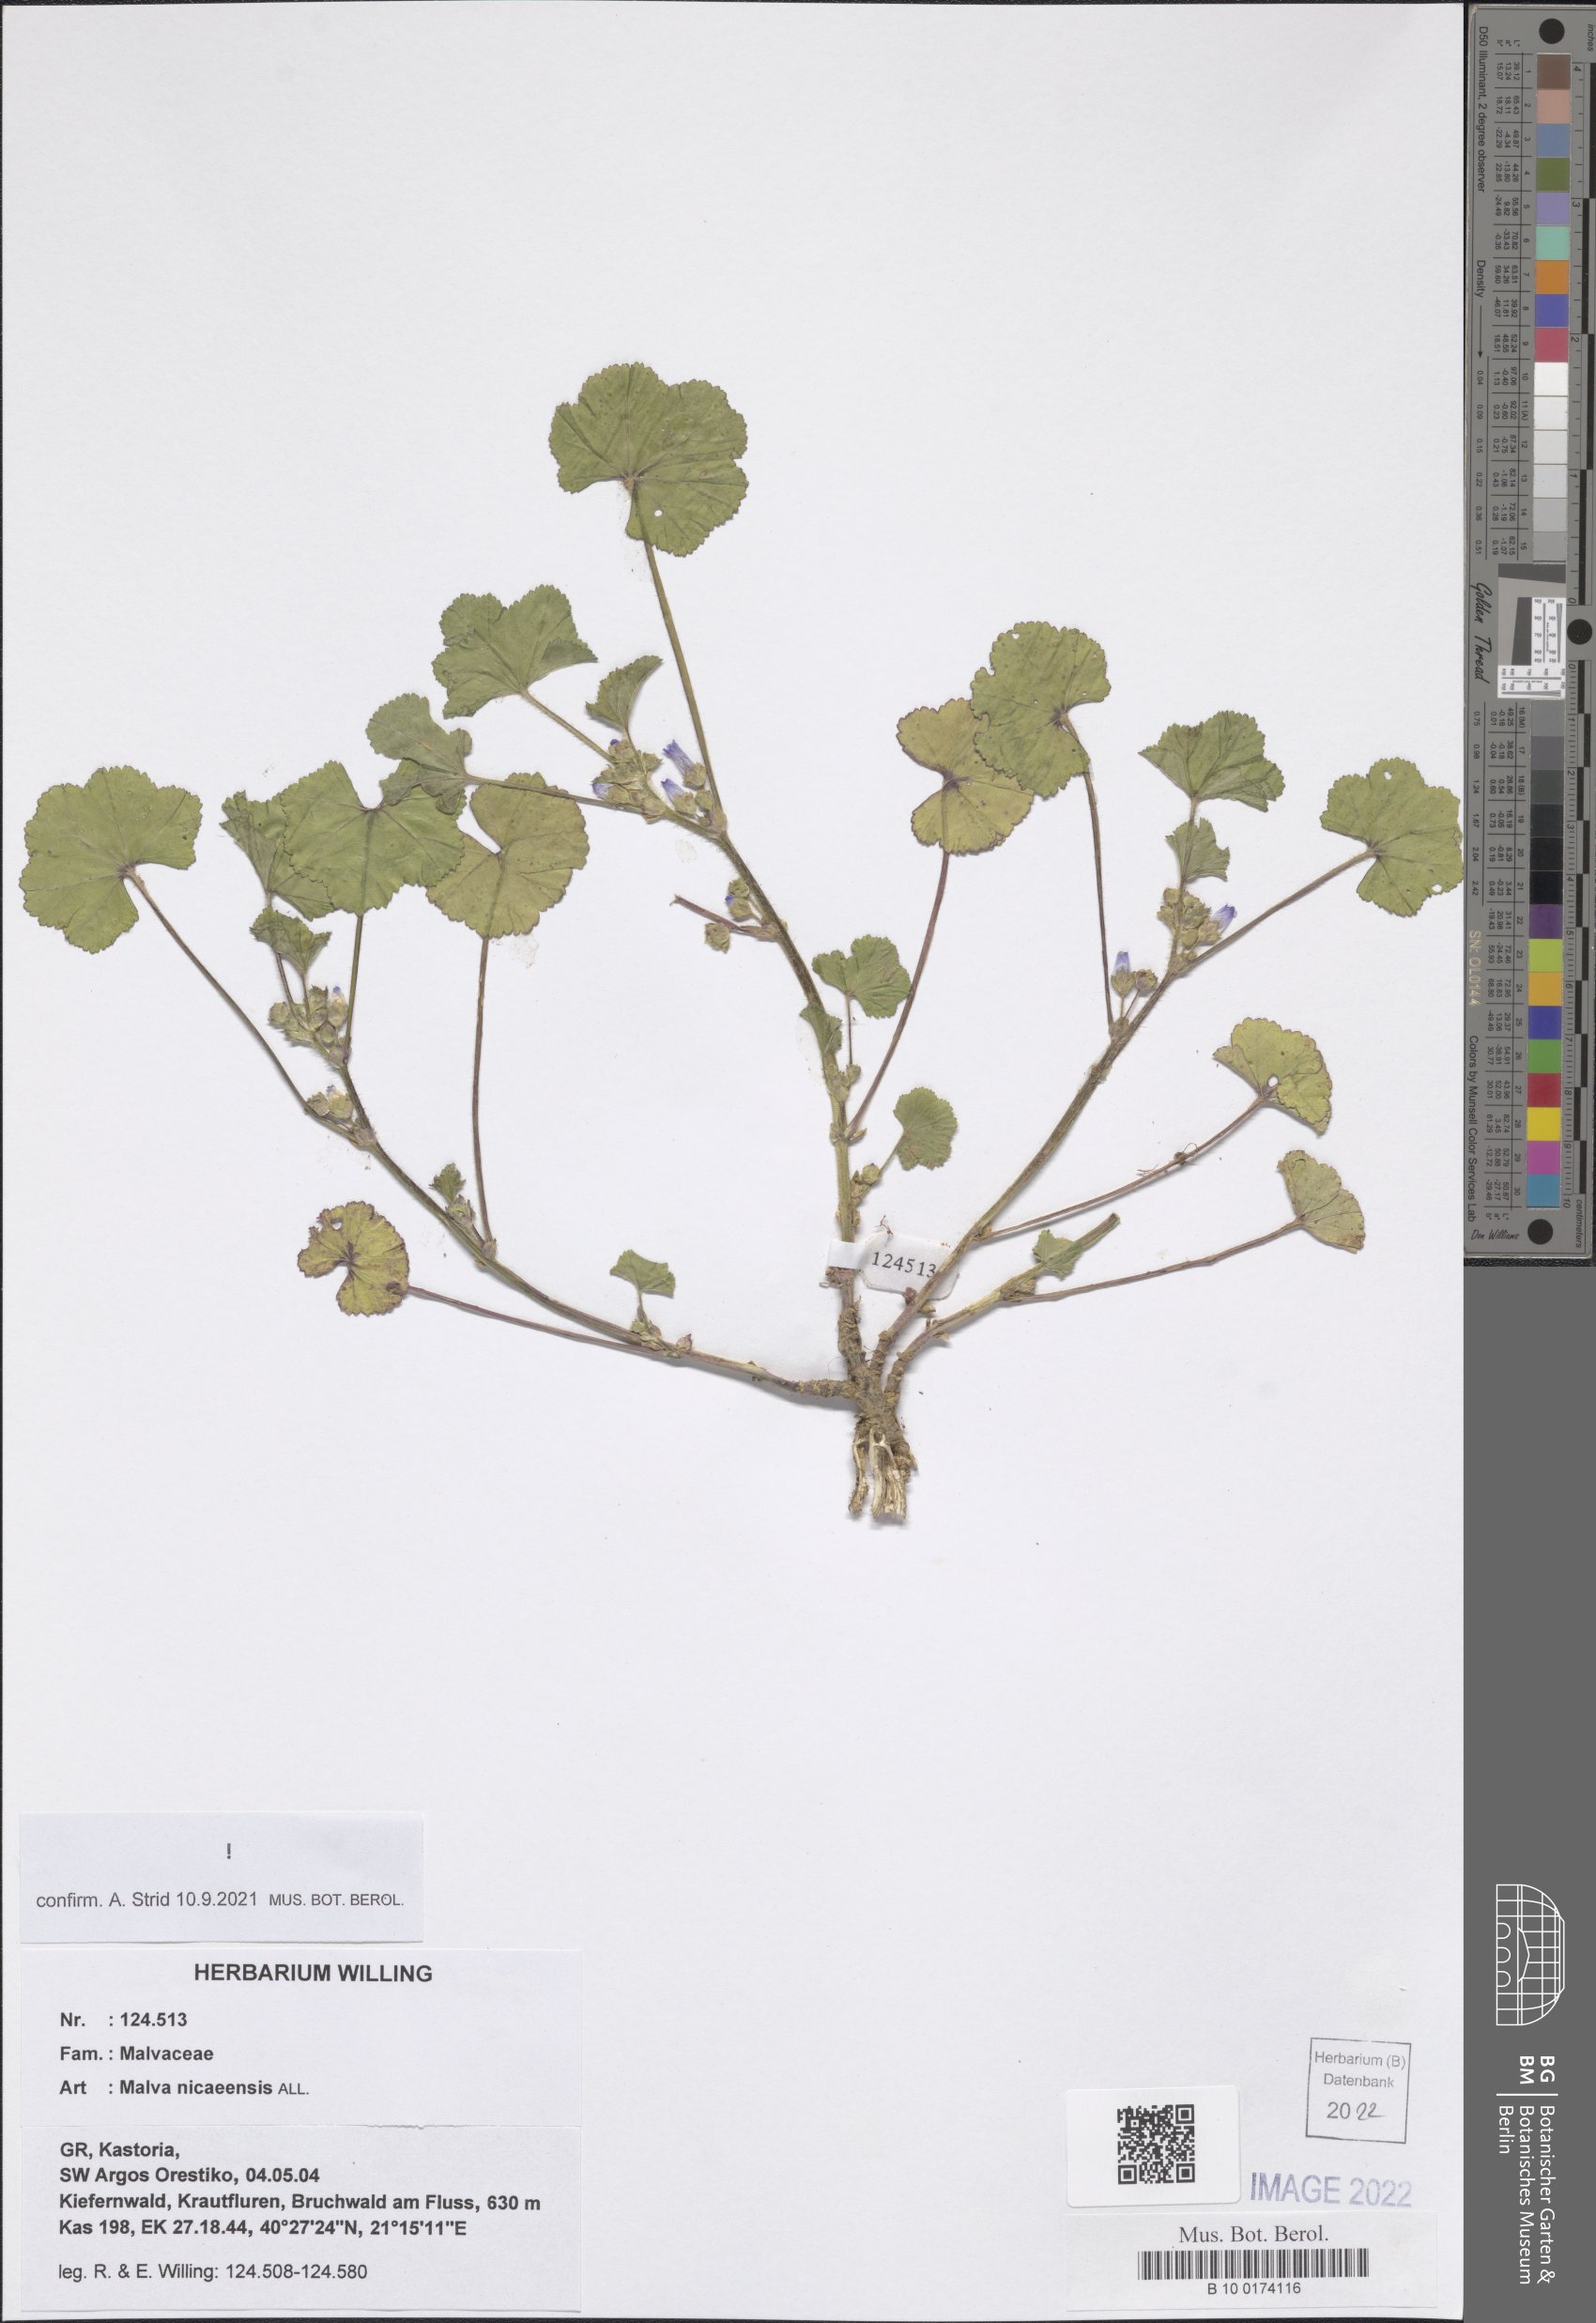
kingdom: Plantae
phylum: Tracheophyta
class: Magnoliopsida
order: Malvales
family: Malvaceae
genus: Malva
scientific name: Malva nicaeensis
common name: French mallow
